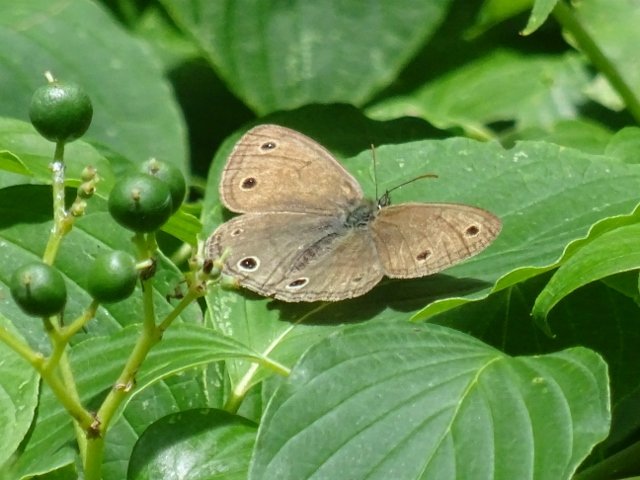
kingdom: Animalia
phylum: Arthropoda
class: Insecta
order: Lepidoptera
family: Nymphalidae
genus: Euptychia
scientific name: Euptychia cymela
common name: Little Wood Satyr
